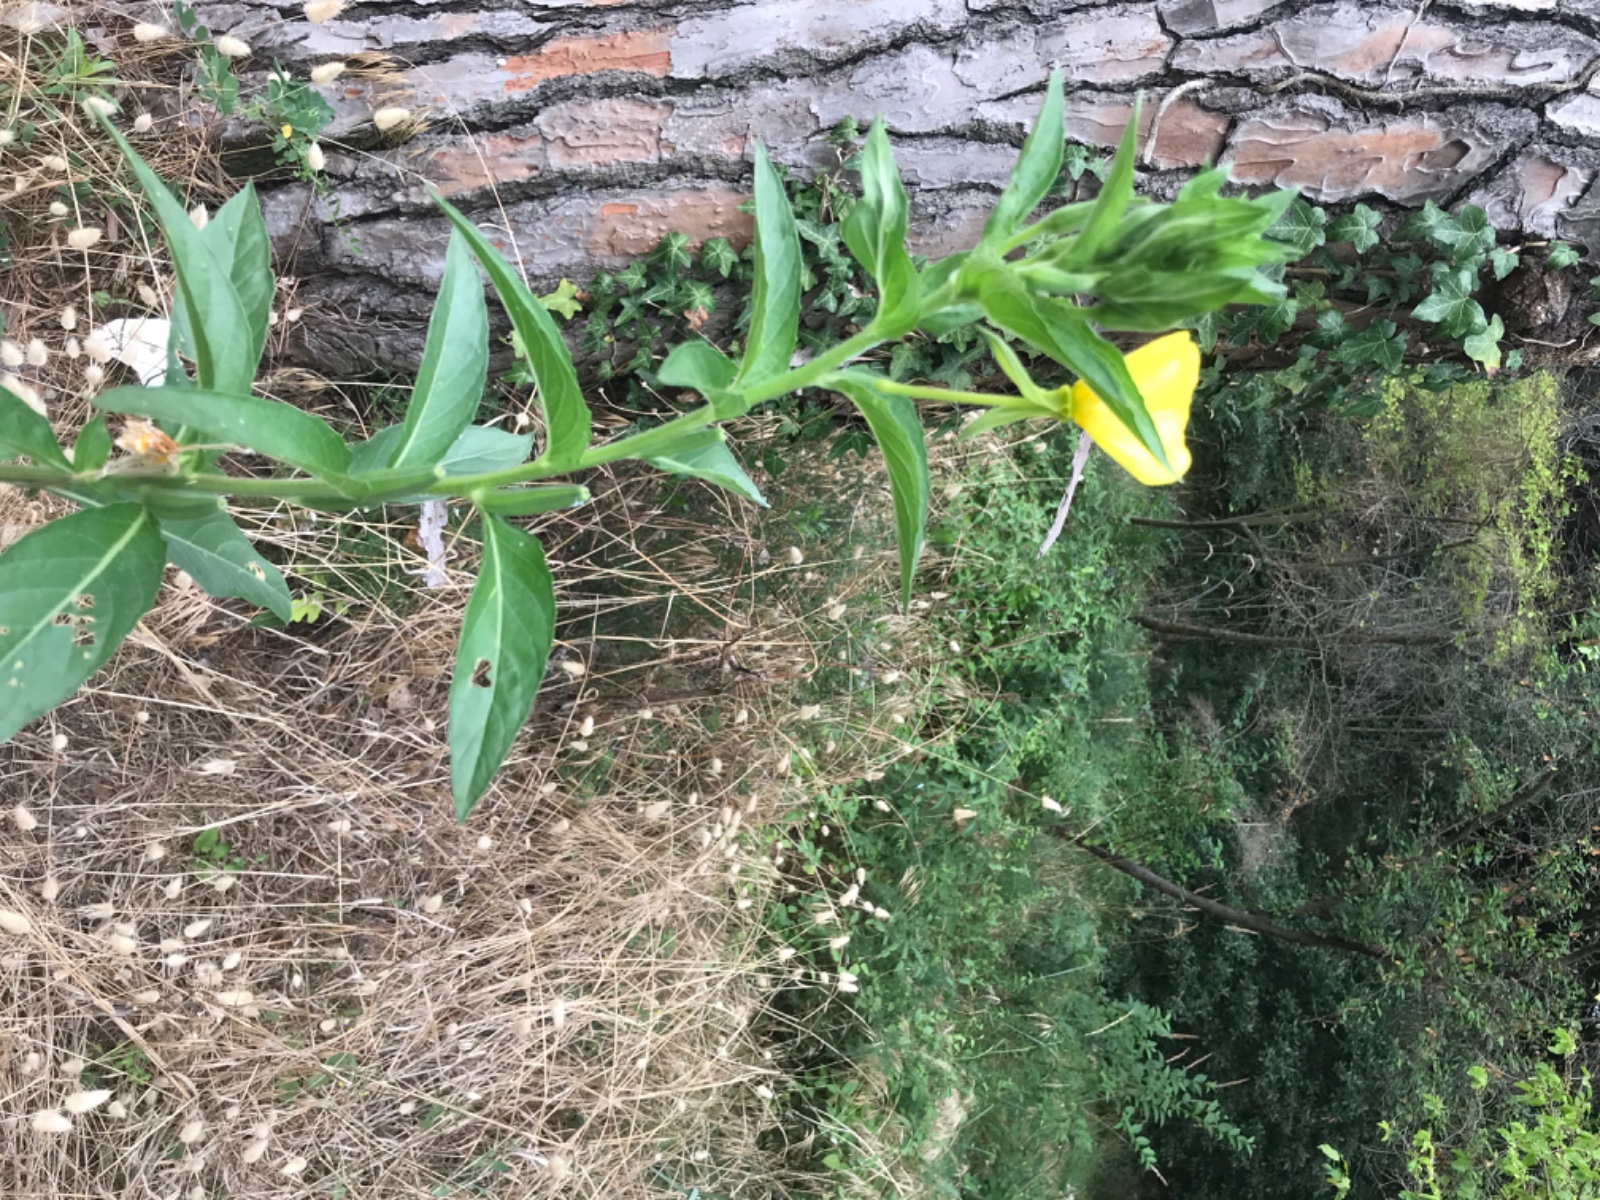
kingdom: Fungi
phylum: Ascomycota
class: Leotiomycetes
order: Helotiales
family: Erysiphaceae
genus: Erysiphe
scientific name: Erysiphe howeana
